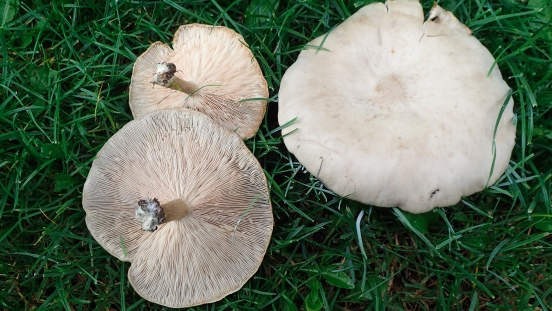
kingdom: Fungi
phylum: Basidiomycota
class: Agaricomycetes
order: Agaricales
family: Tricholomataceae
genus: Melanoleuca
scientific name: Melanoleuca grammopodia
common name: stribestokket munkehat
